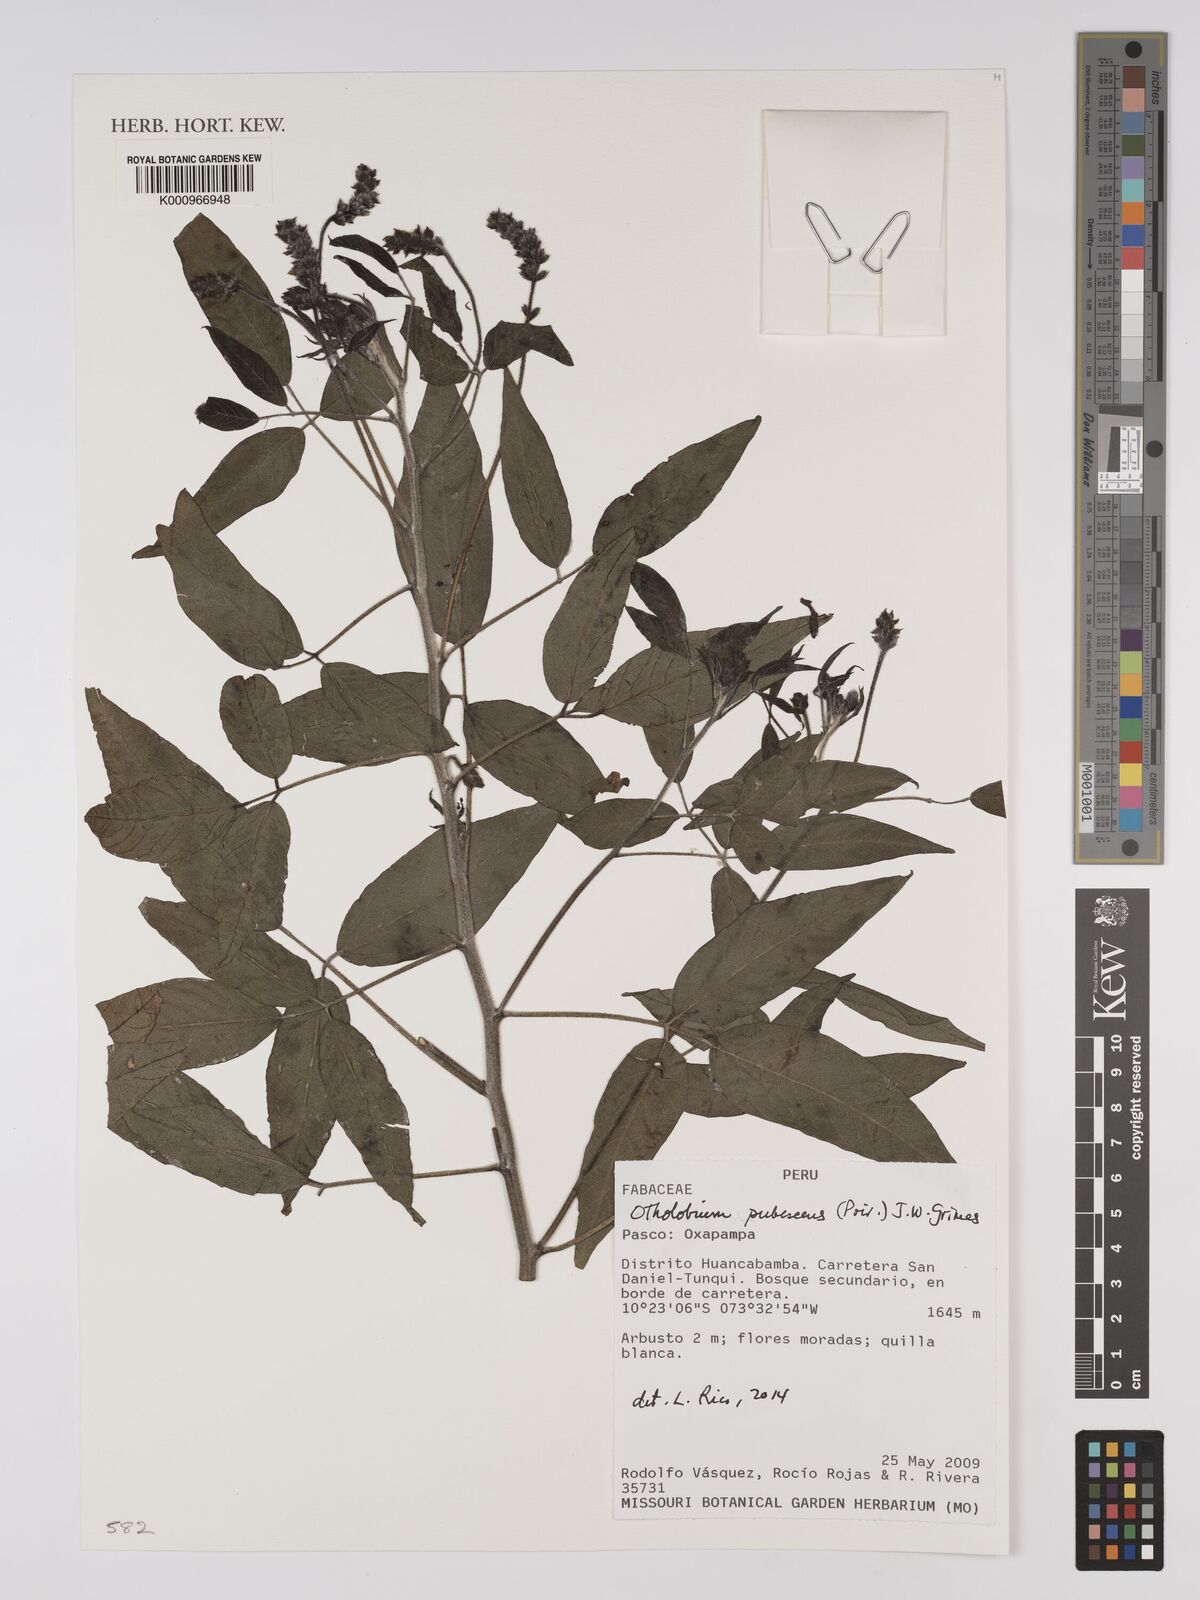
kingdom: Plantae
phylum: Tracheophyta
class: Magnoliopsida
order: Fabales
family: Fabaceae
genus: Psoralea
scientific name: Psoralea Otholobium pubescens
